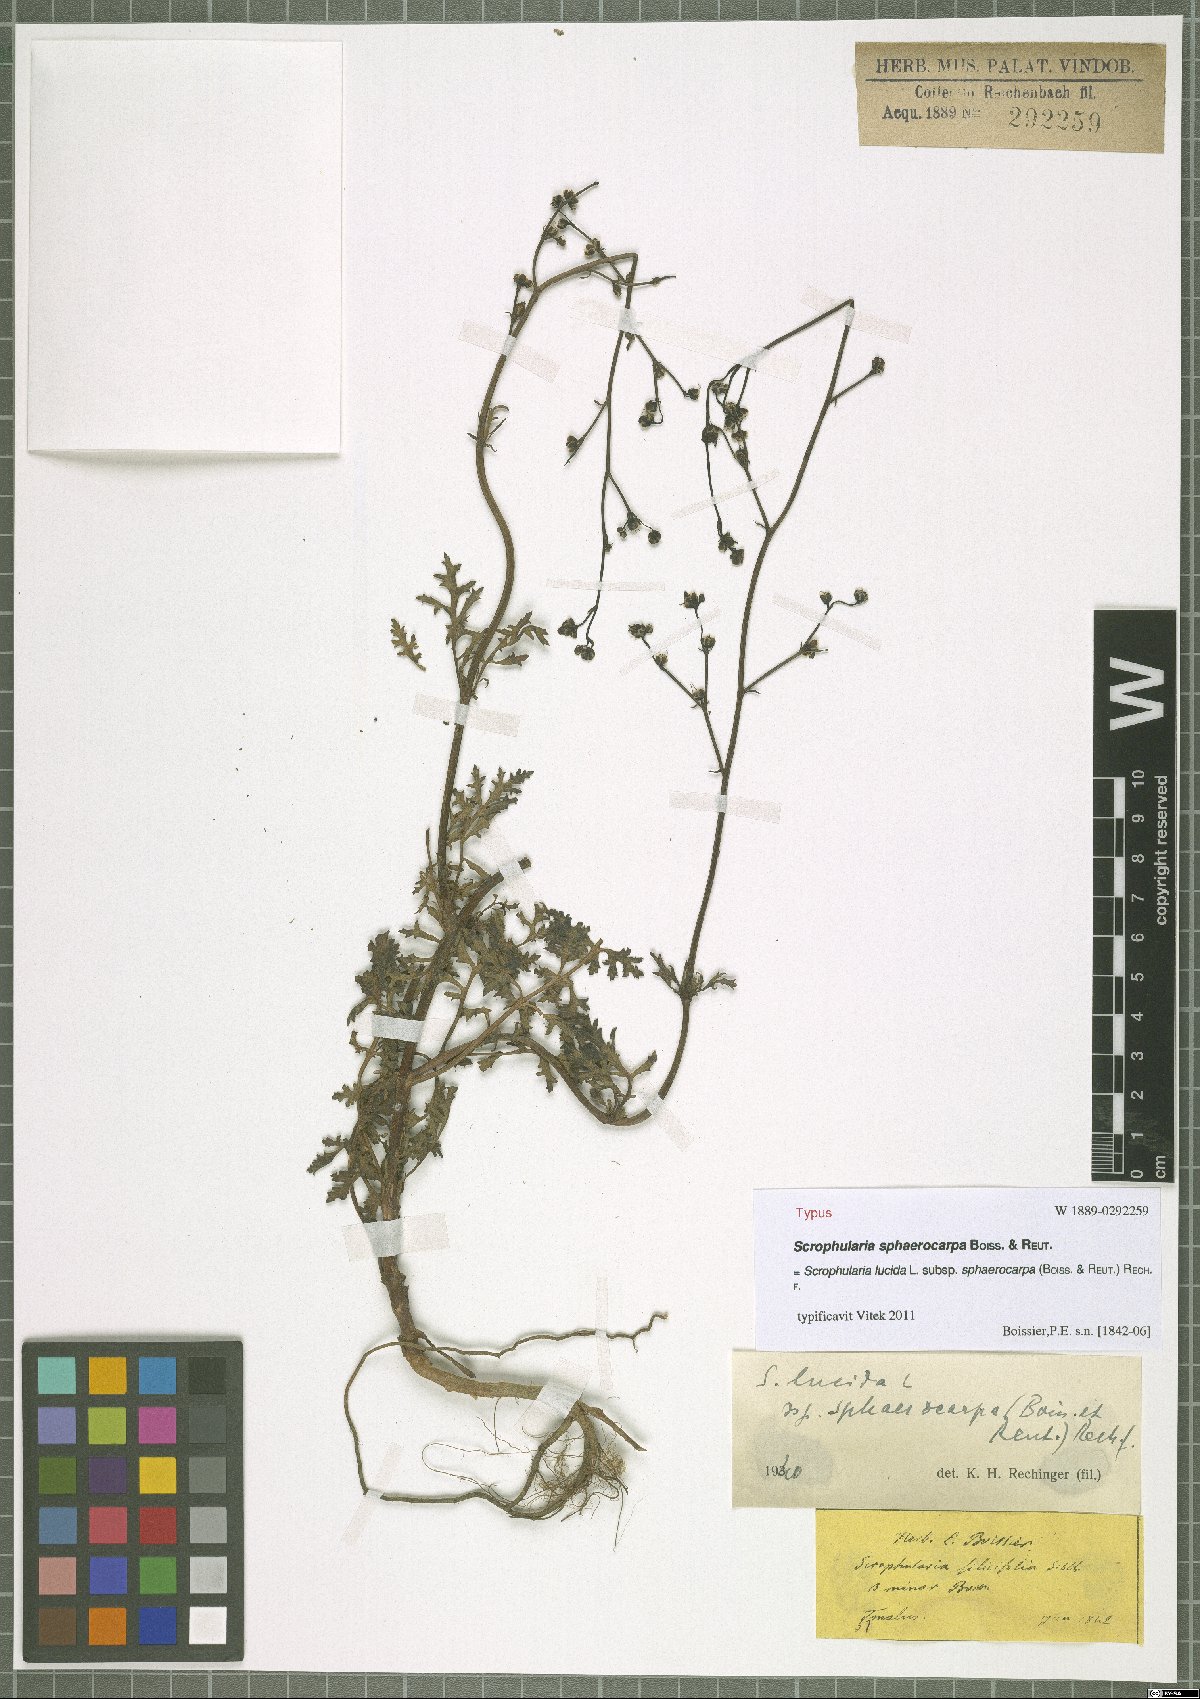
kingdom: Plantae
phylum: Tracheophyta
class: Magnoliopsida
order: Lamiales
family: Scrophulariaceae
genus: Scrophularia
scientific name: Scrophularia lucida
